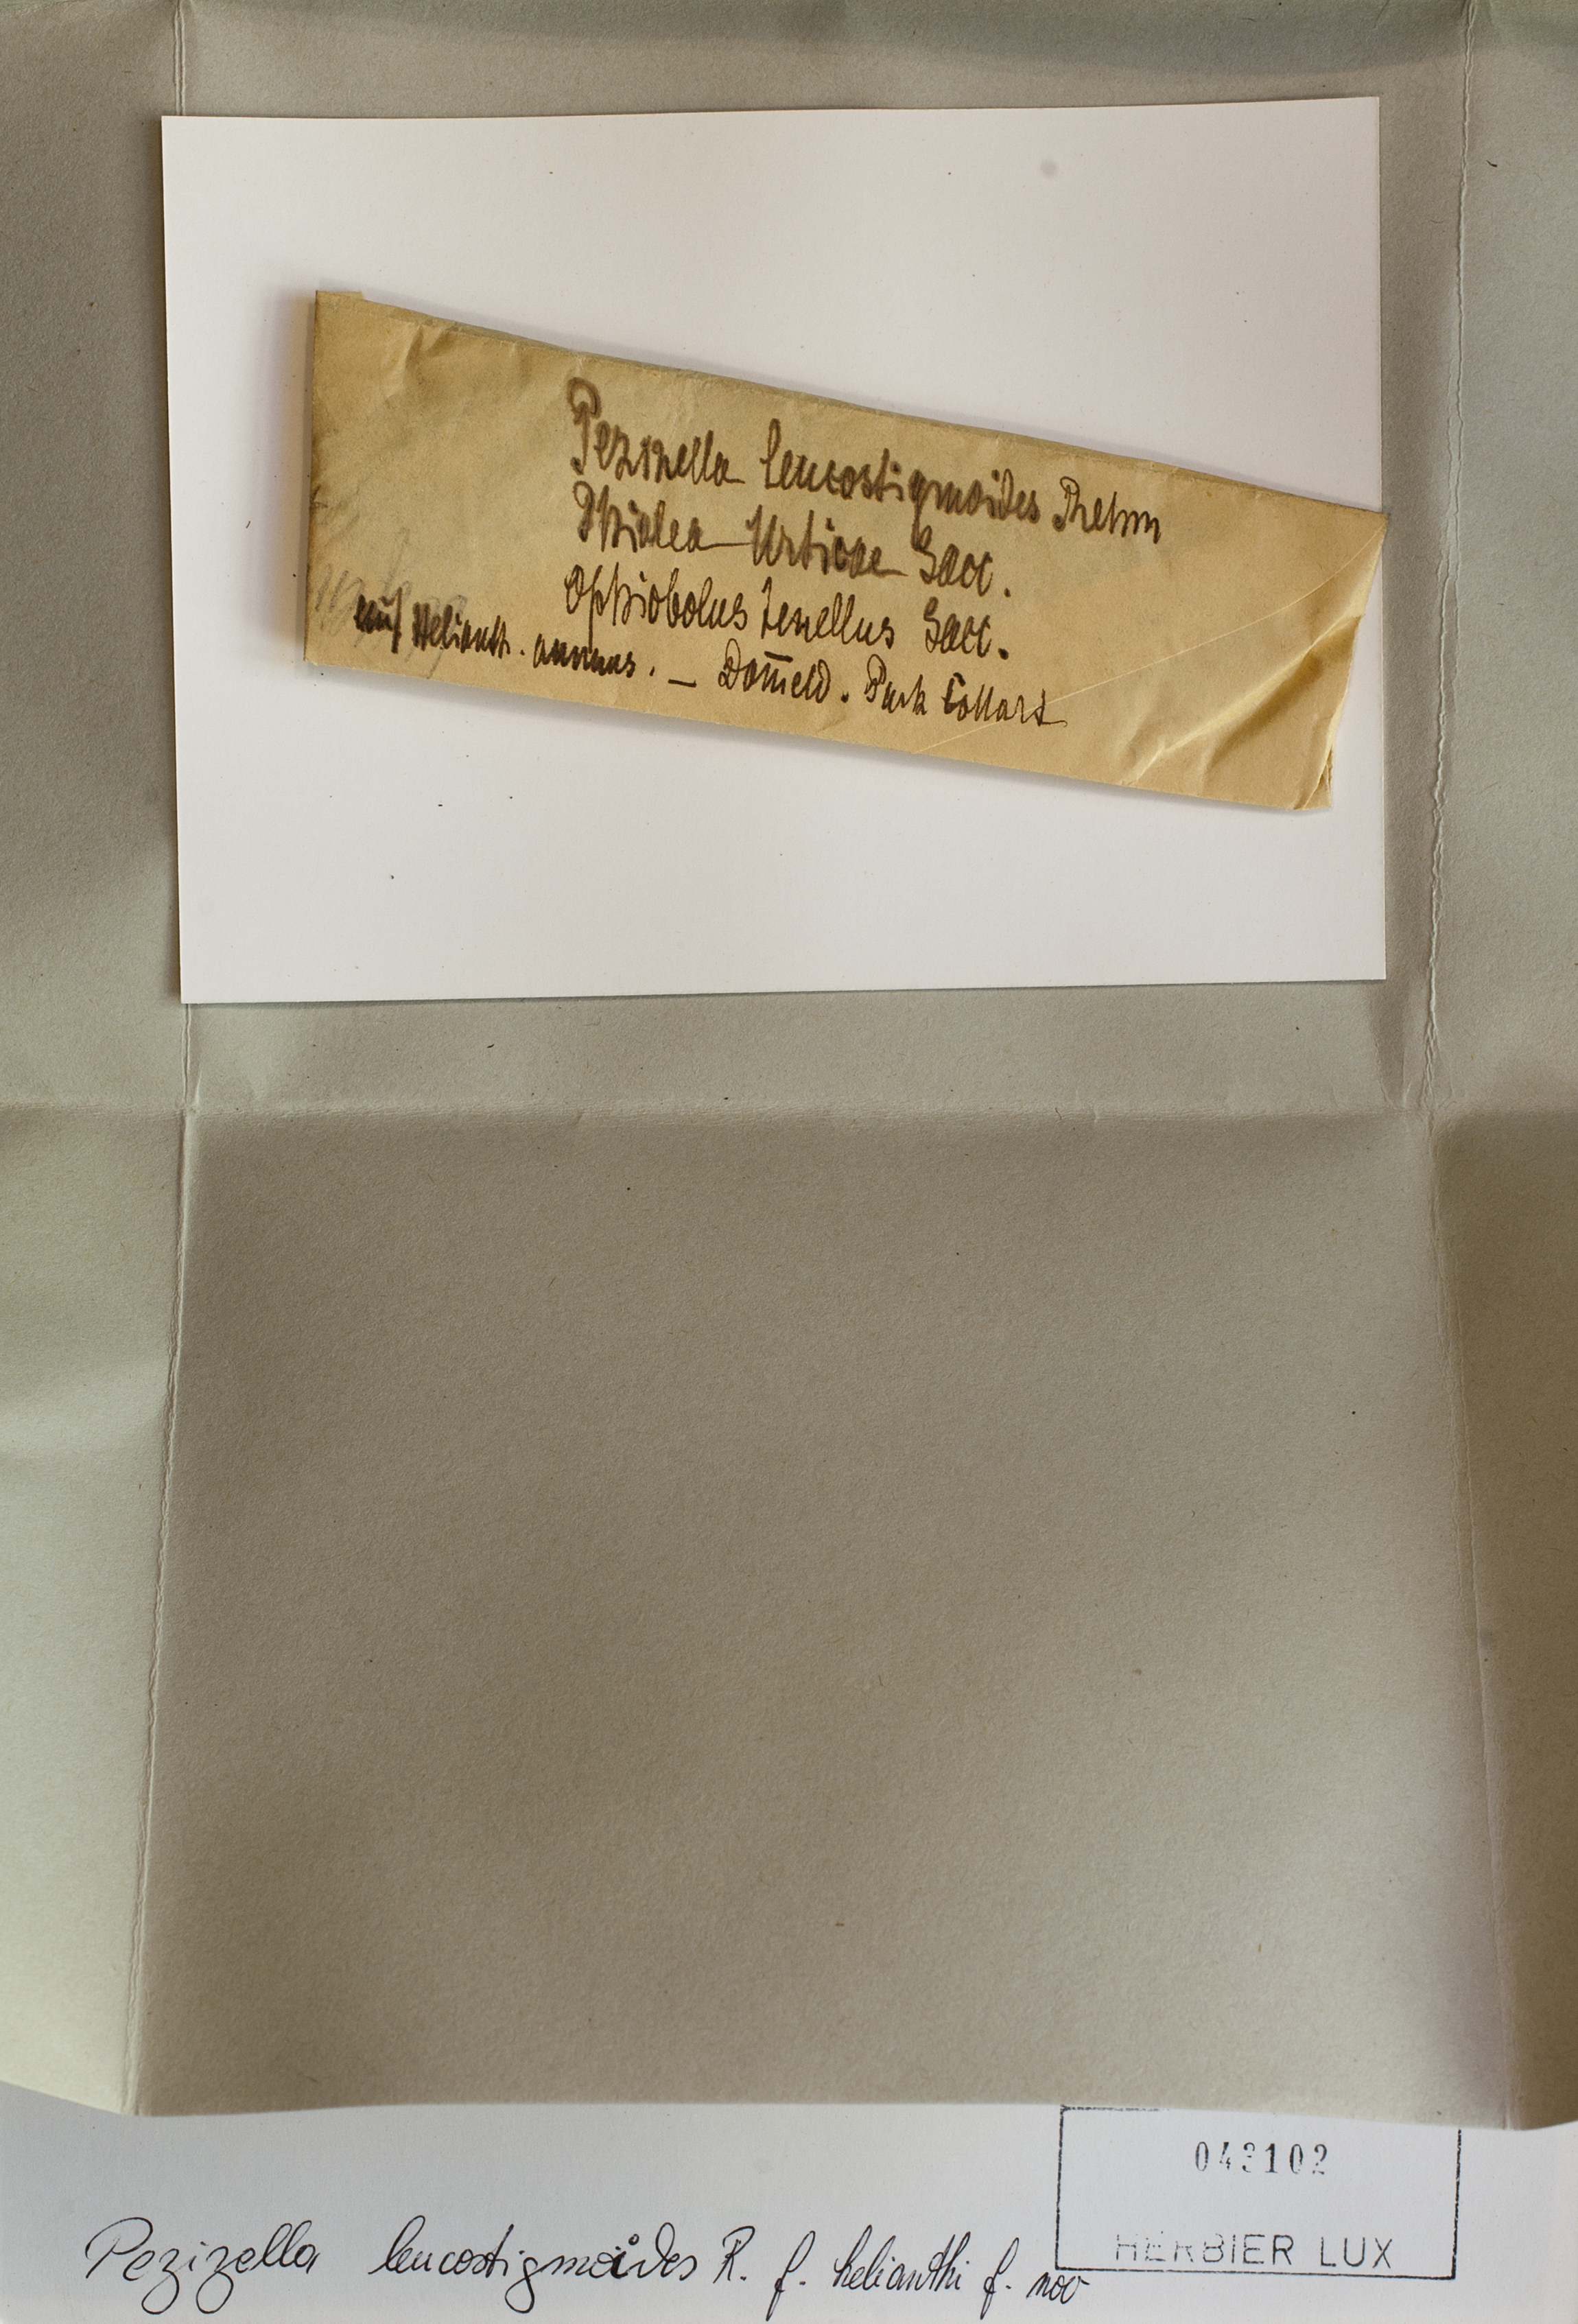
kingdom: Fungi
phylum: Ascomycota
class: Leotiomycetes
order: Helotiales
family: Pezizellaceae
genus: Calycellina
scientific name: Calycellina chlorinella
